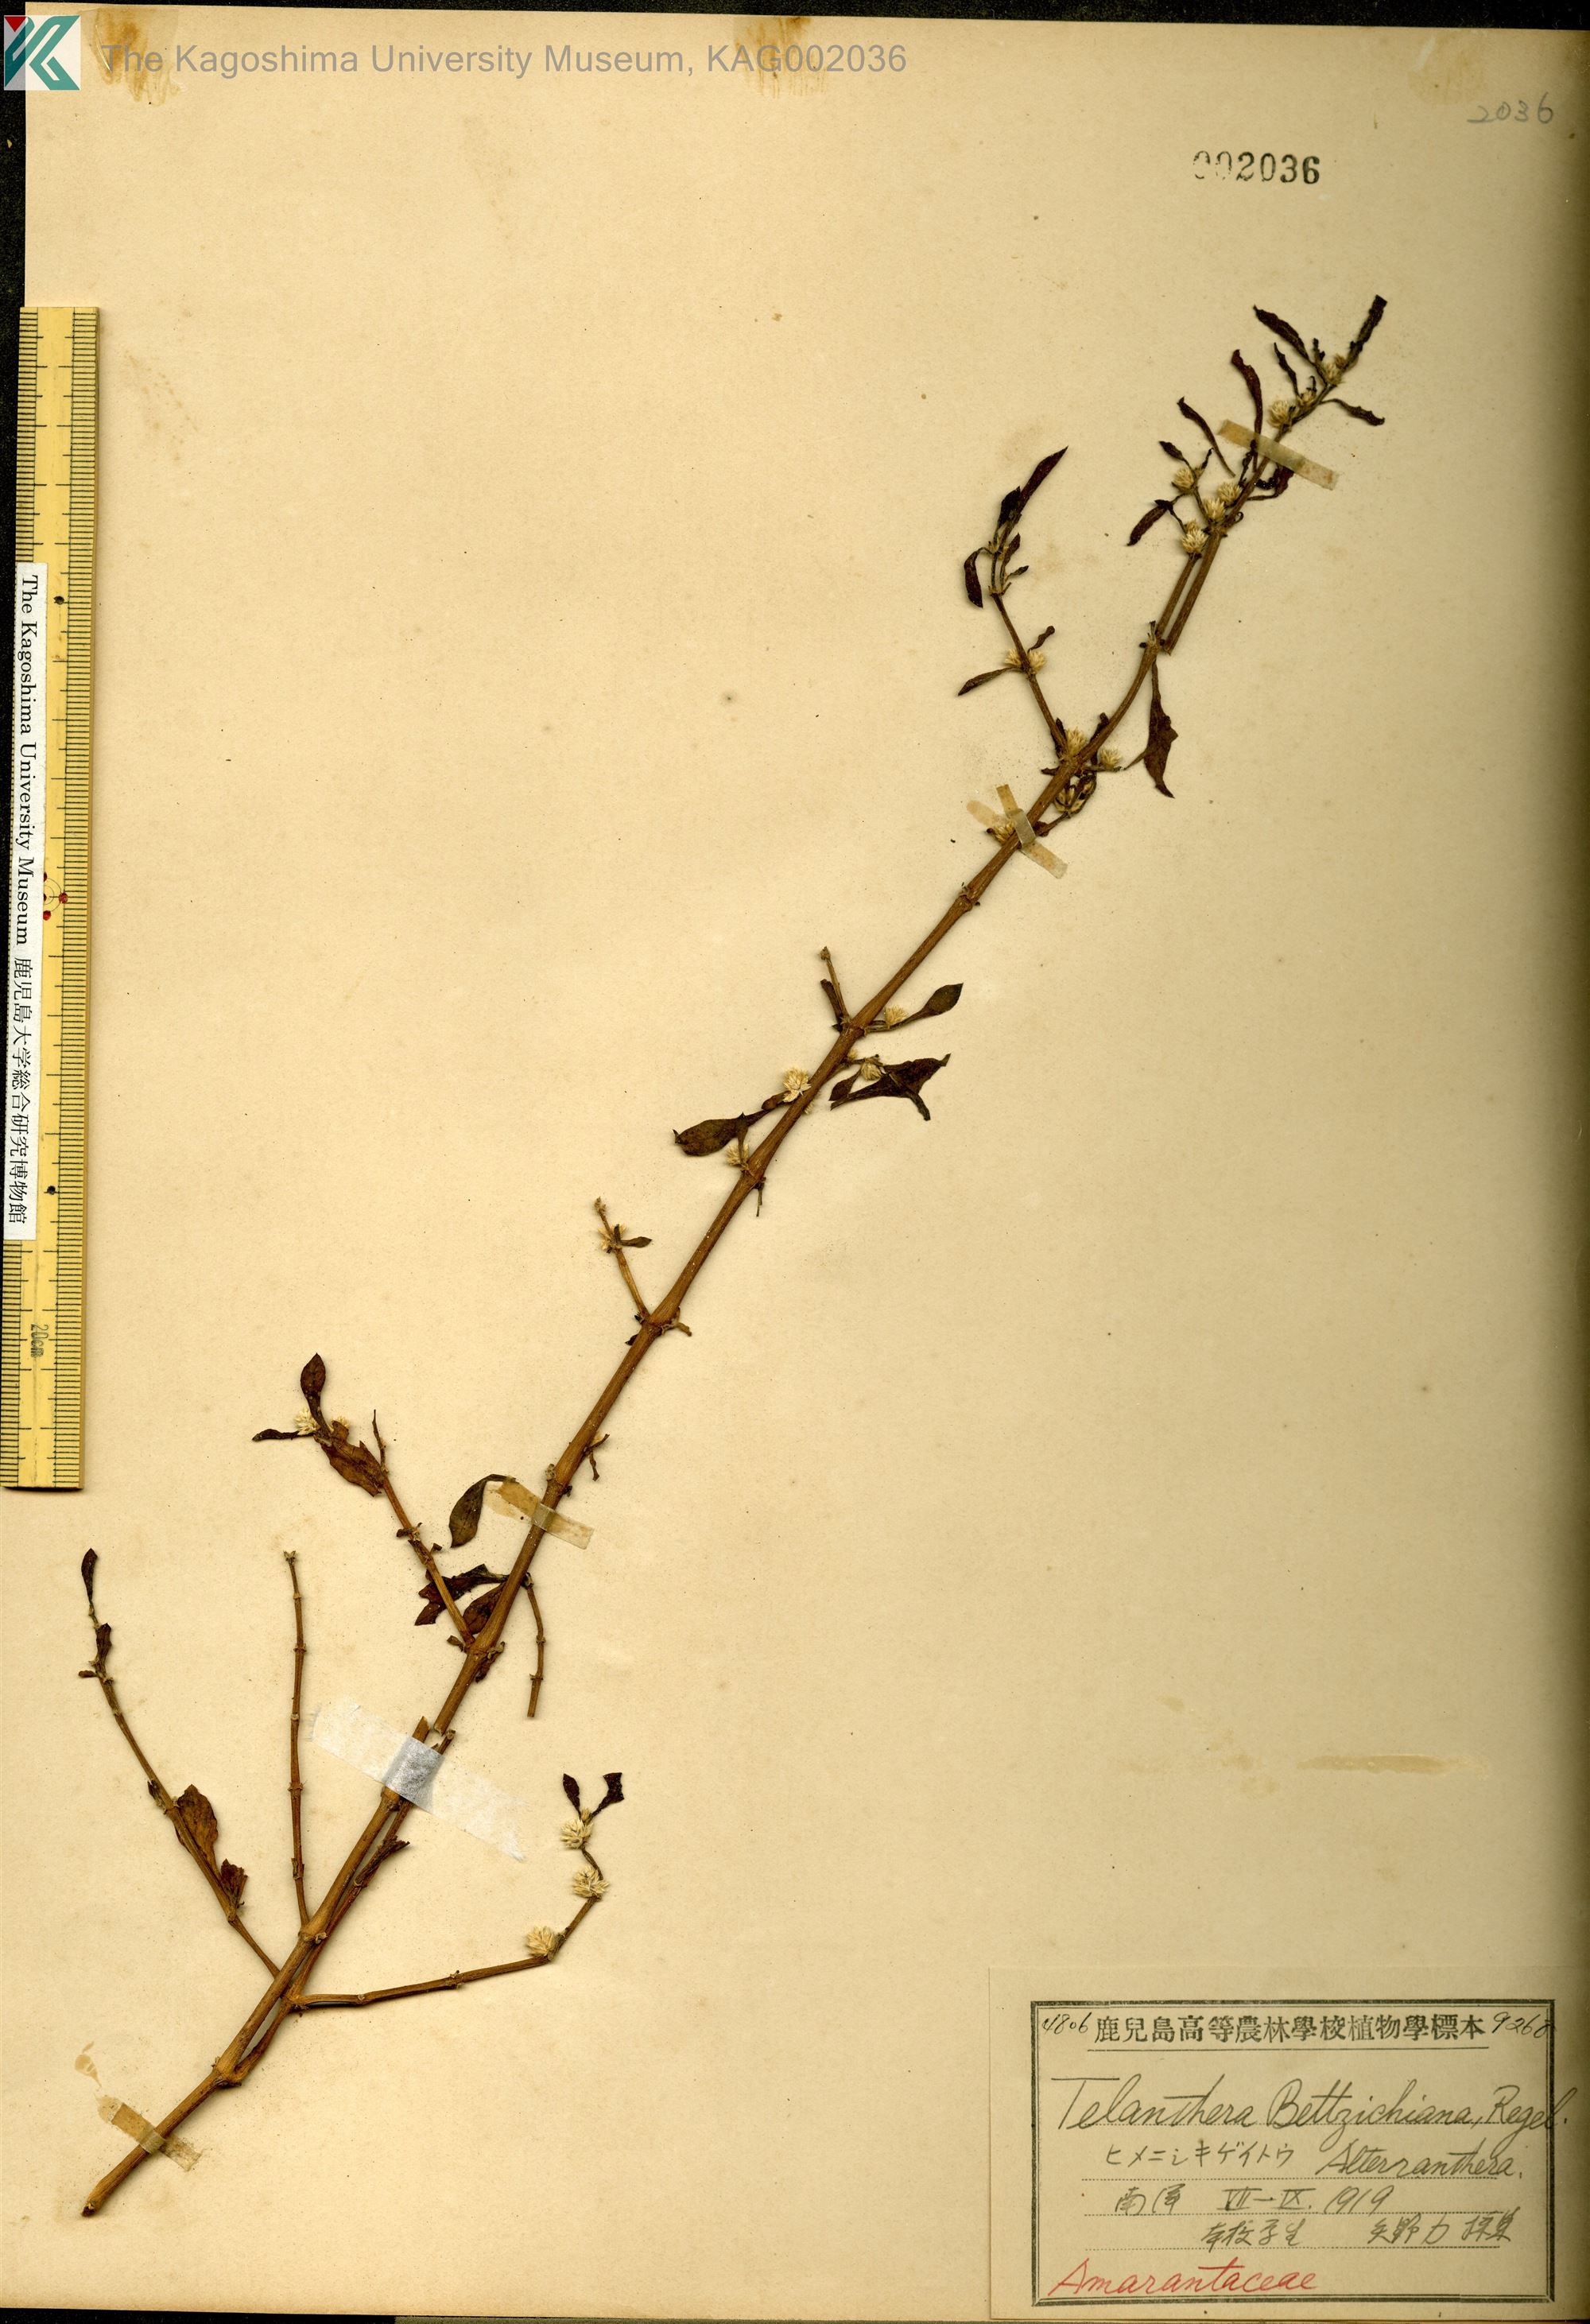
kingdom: Plantae
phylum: Tracheophyta
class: Magnoliopsida
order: Caryophyllales
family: Amaranthaceae
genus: Alternanthera
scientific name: Alternanthera bettzickiana
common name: Calico-plant
